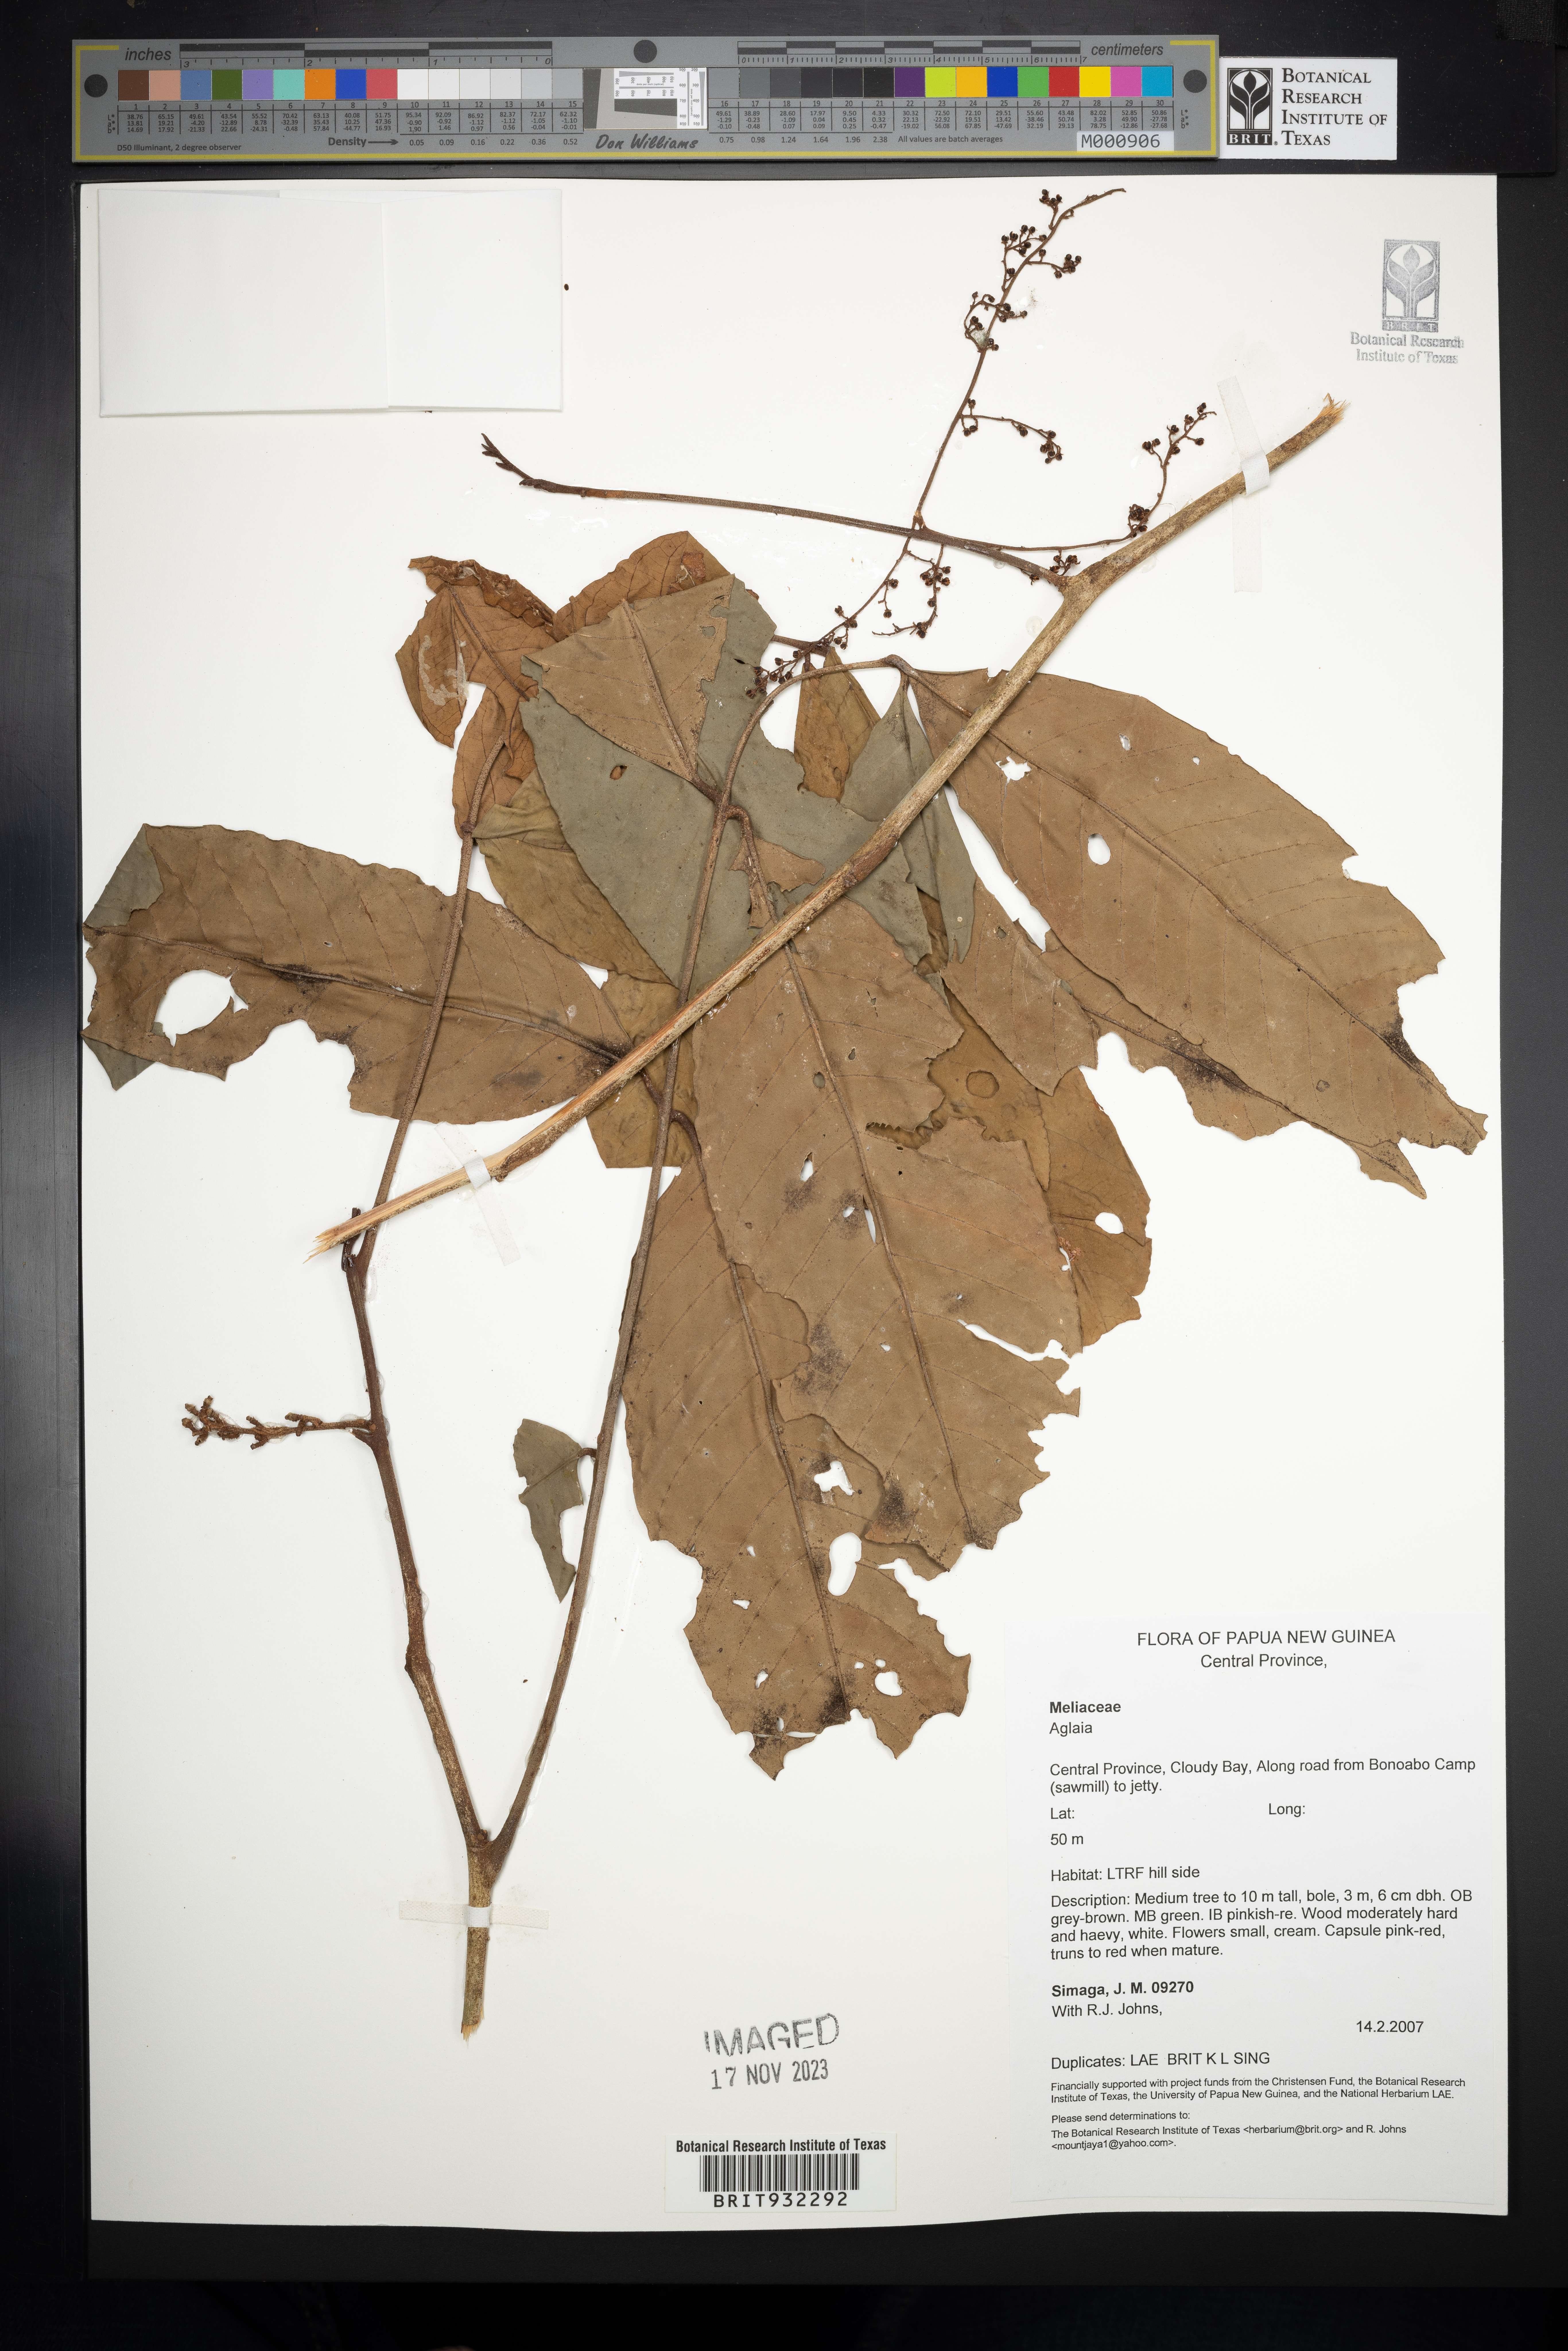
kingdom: Plantae
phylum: Tracheophyta
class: Magnoliopsida
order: Sapindales
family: Meliaceae
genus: Aglaia
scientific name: Aglaia
